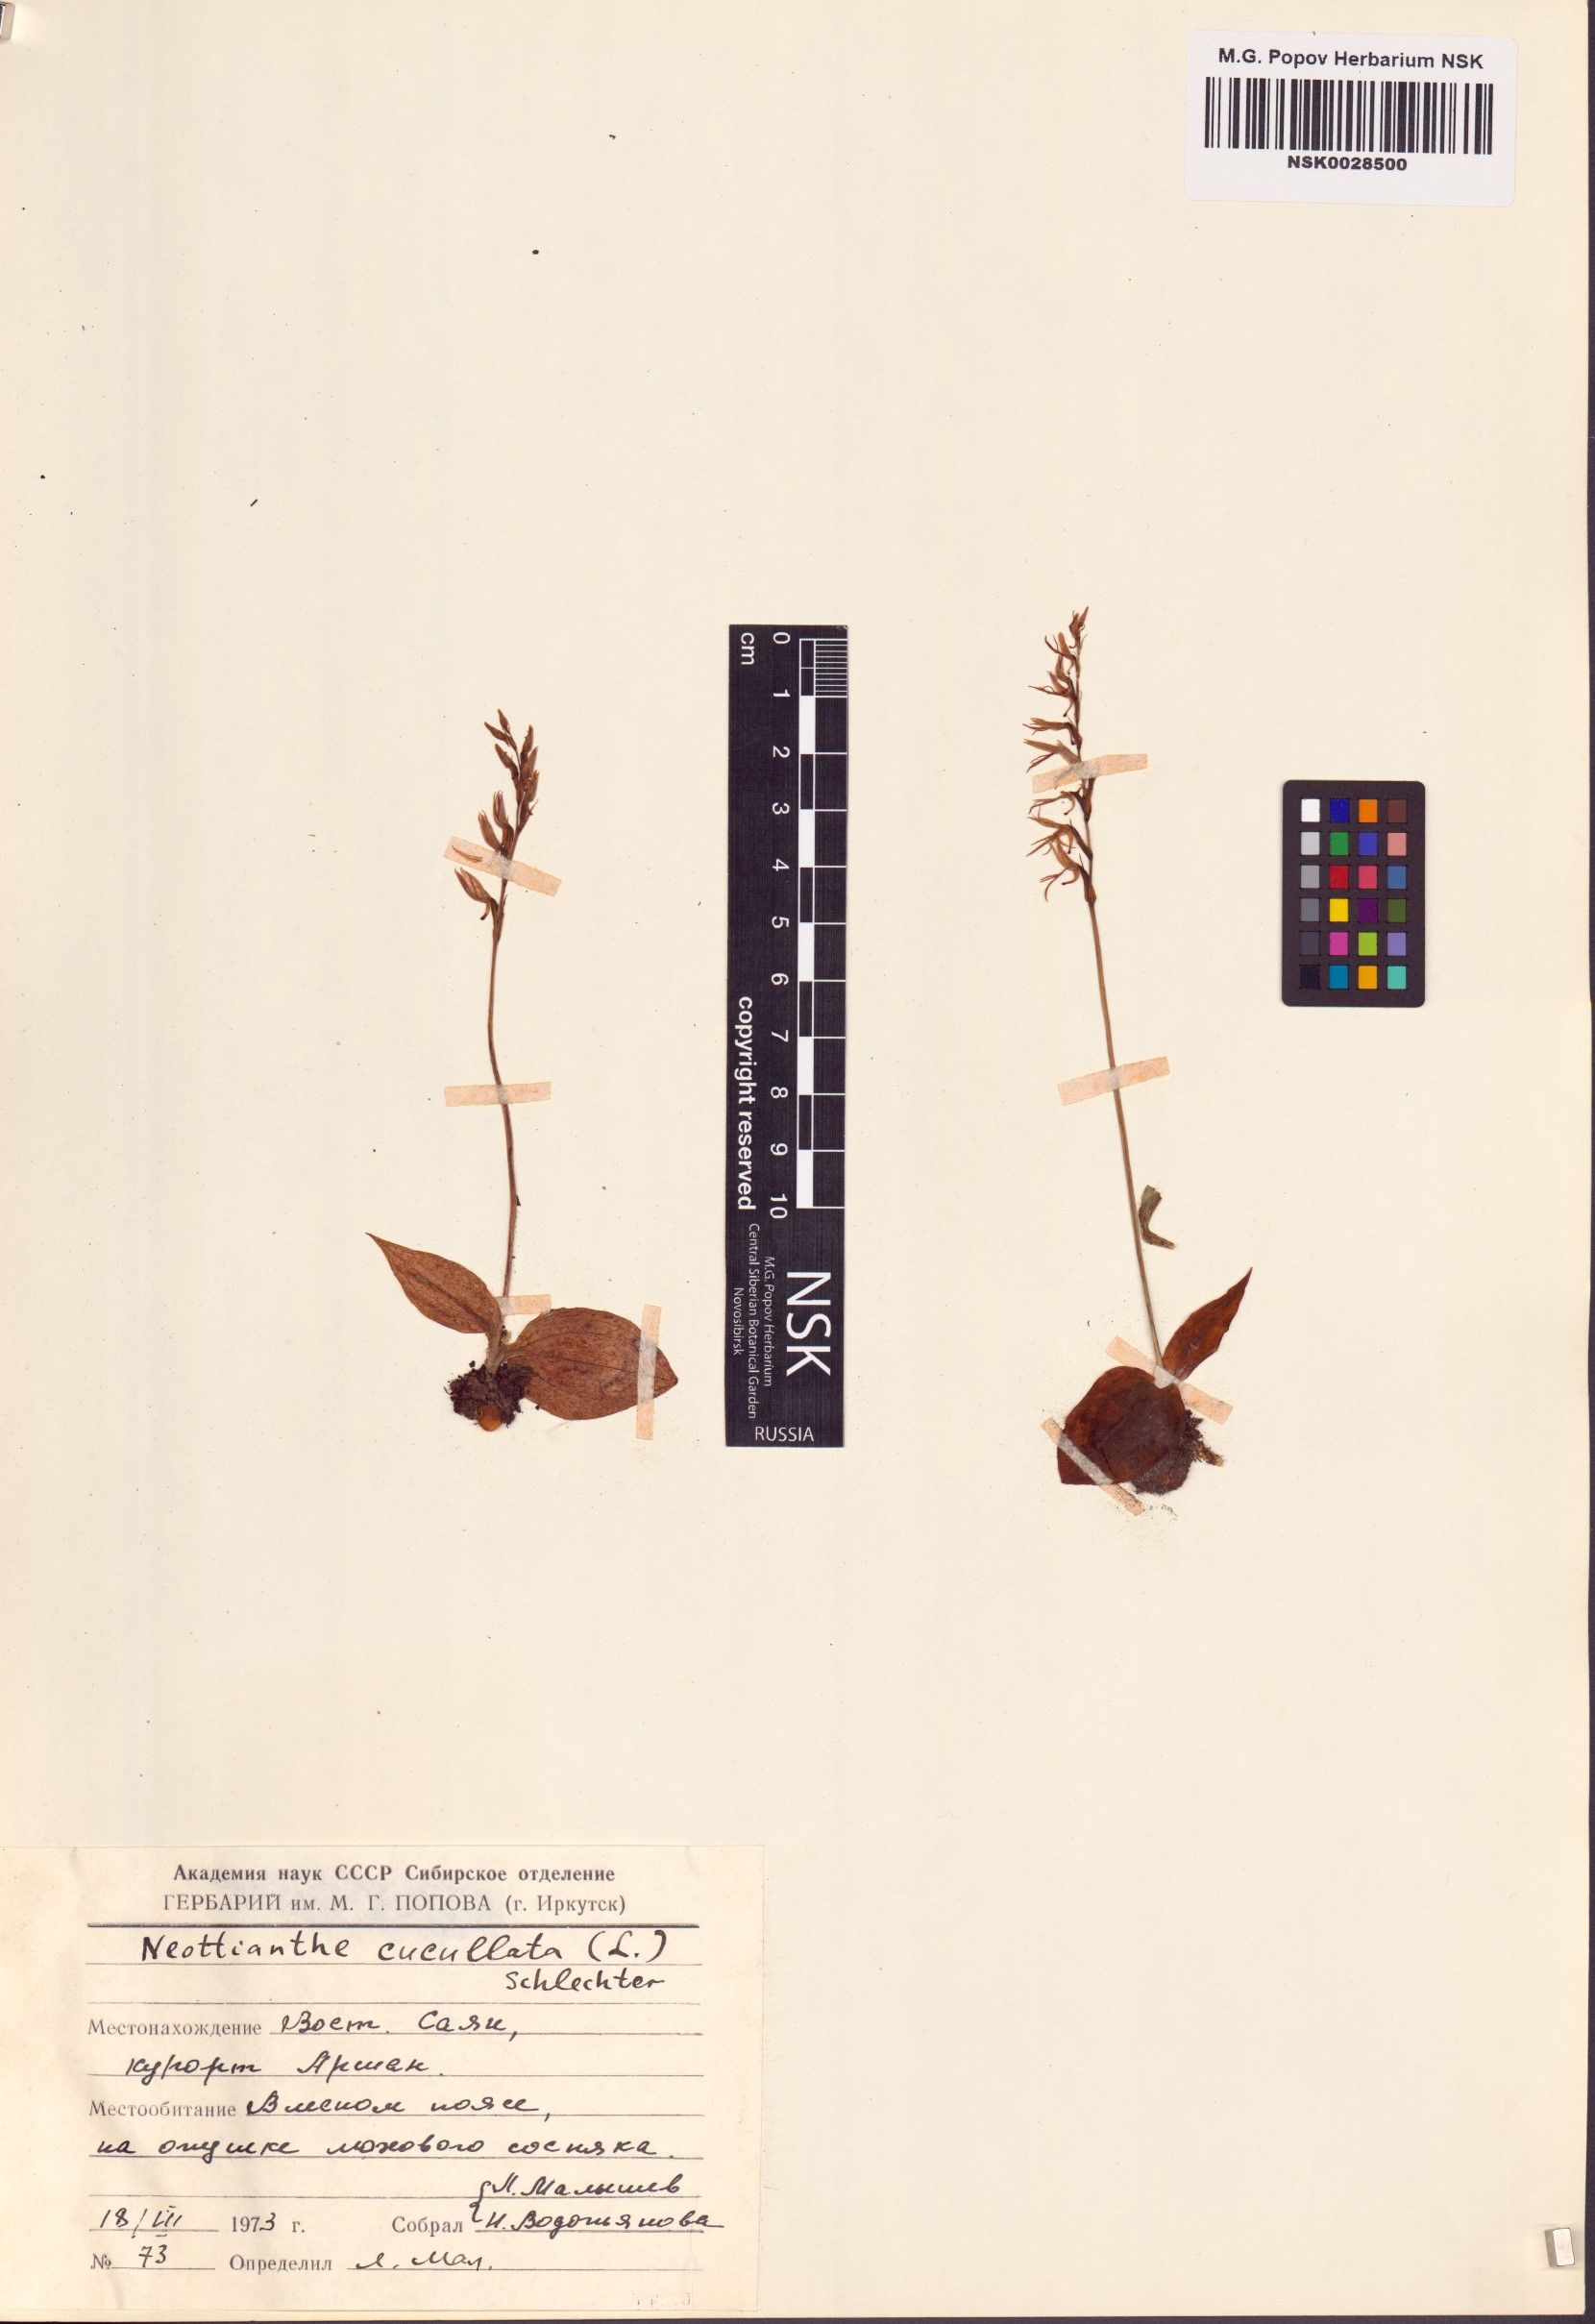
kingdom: Plantae
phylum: Tracheophyta
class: Liliopsida
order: Asparagales
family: Orchidaceae
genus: Hemipilia
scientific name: Hemipilia cucullata
